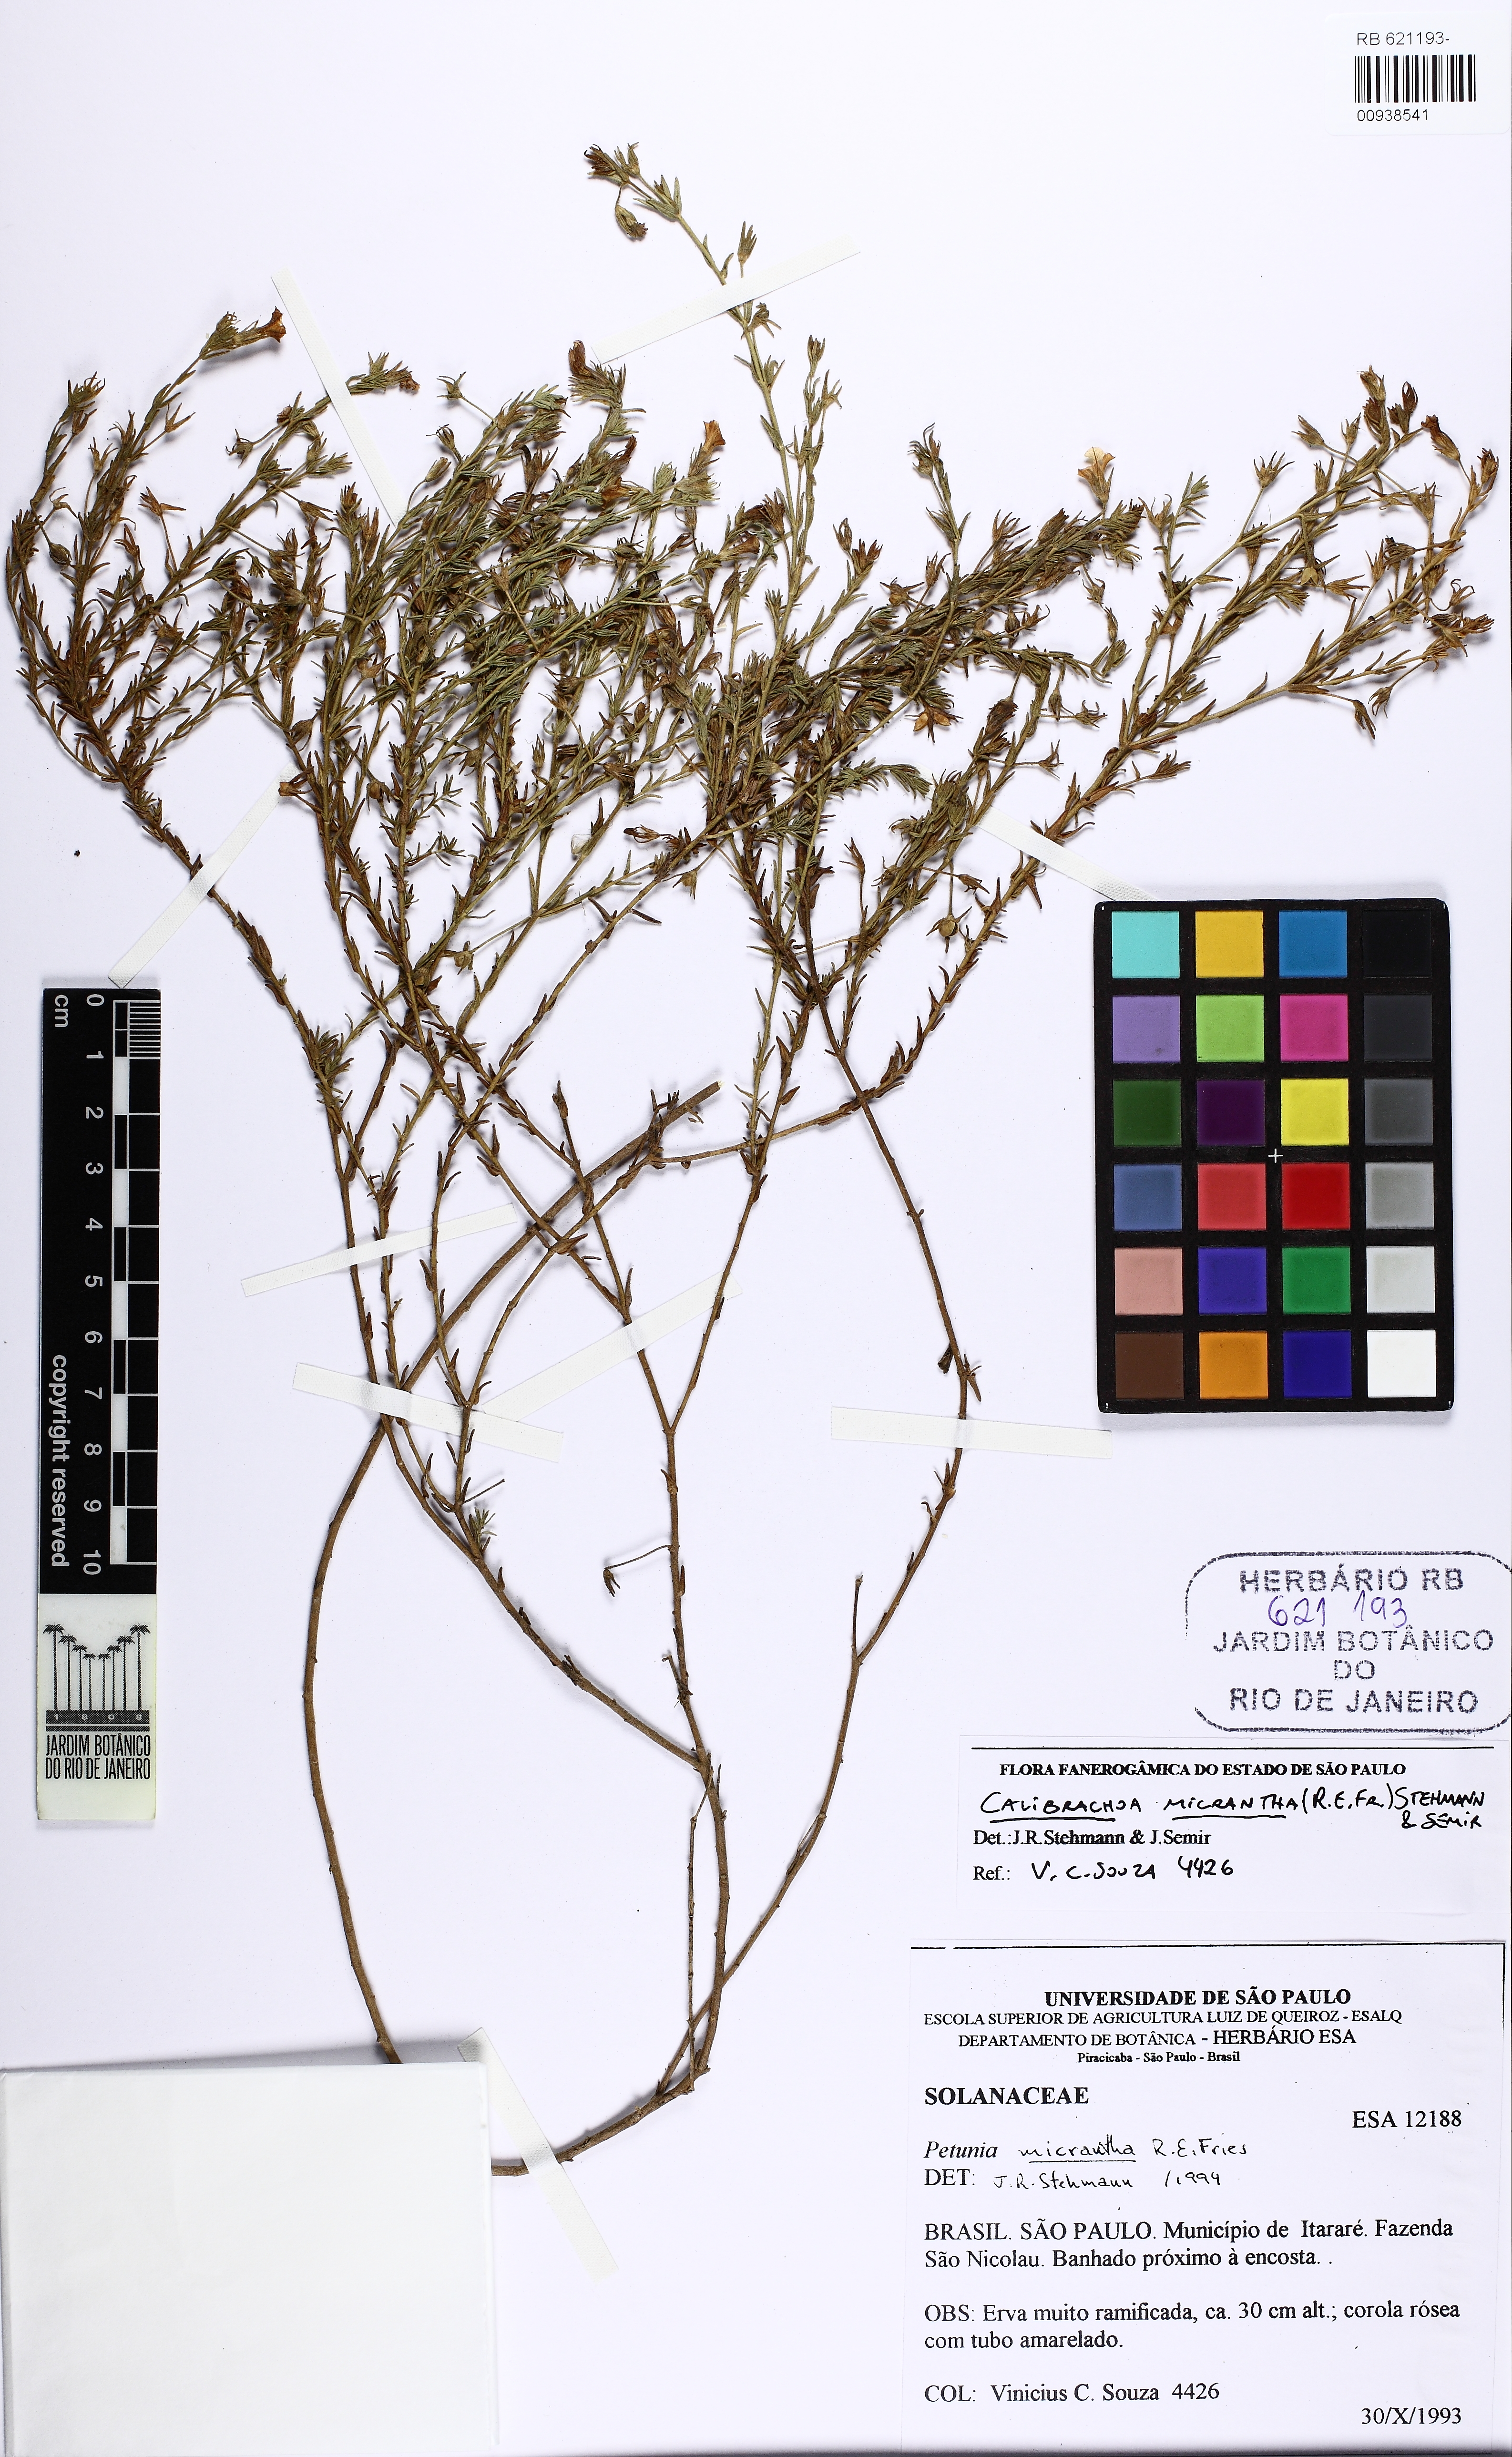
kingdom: Plantae
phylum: Tracheophyta
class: Magnoliopsida
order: Solanales
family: Solanaceae
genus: Calibrachoa
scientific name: Calibrachoa micrantha
